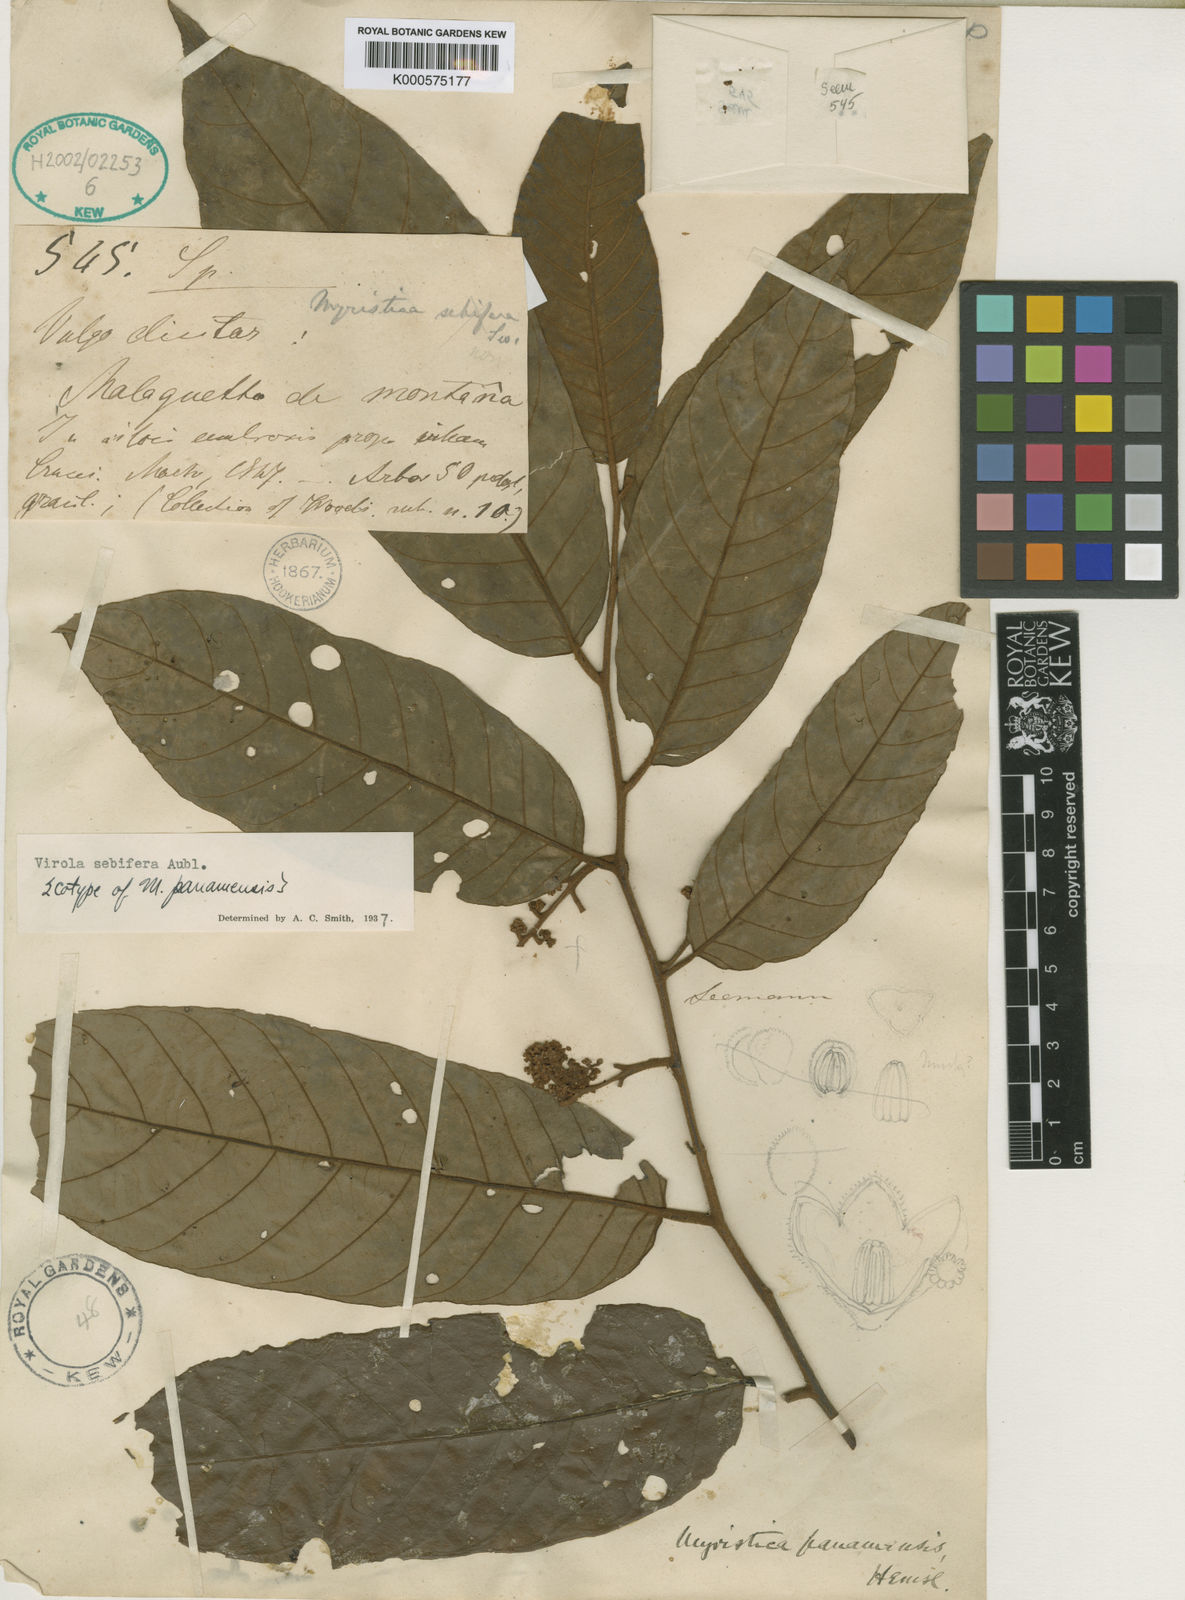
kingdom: Plantae
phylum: Tracheophyta
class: Magnoliopsida
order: Magnoliales
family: Myristicaceae
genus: Virola
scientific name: Virola sebifera
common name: Red ucuuba
